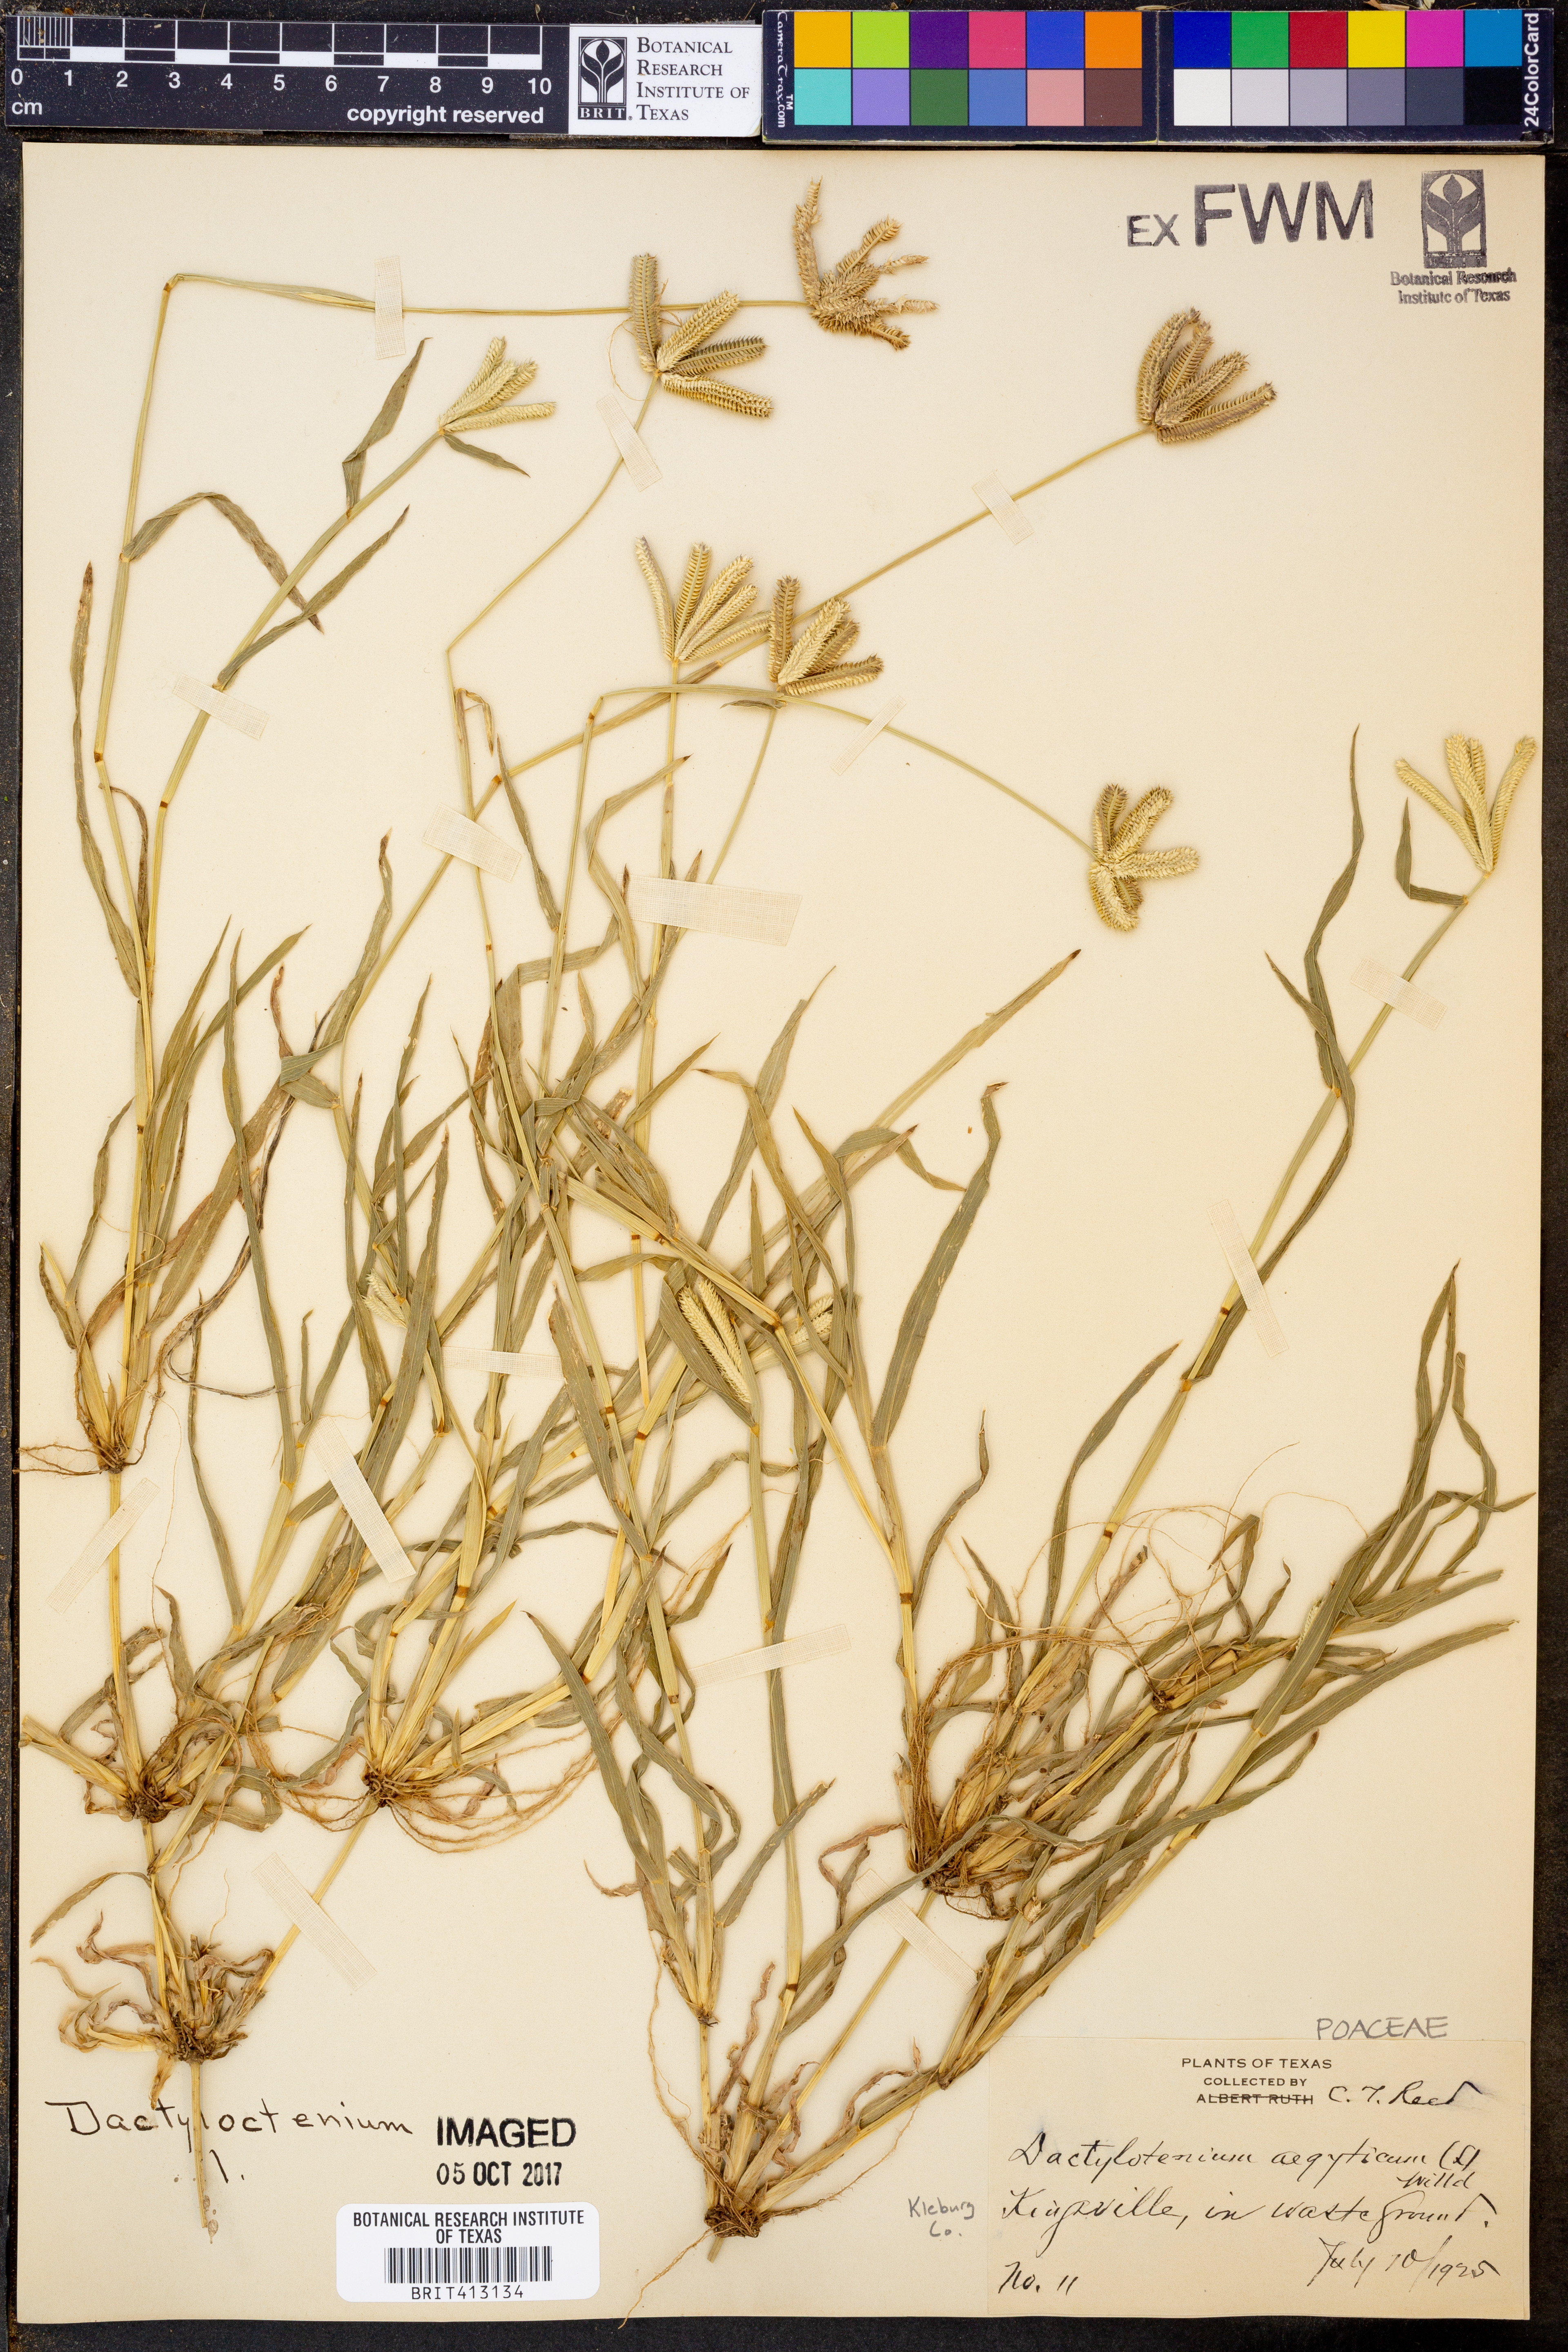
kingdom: Plantae
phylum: Tracheophyta
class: Liliopsida
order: Poales
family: Poaceae
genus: Dactyloctenium
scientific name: Dactyloctenium aegyptium
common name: Egyptian grass
